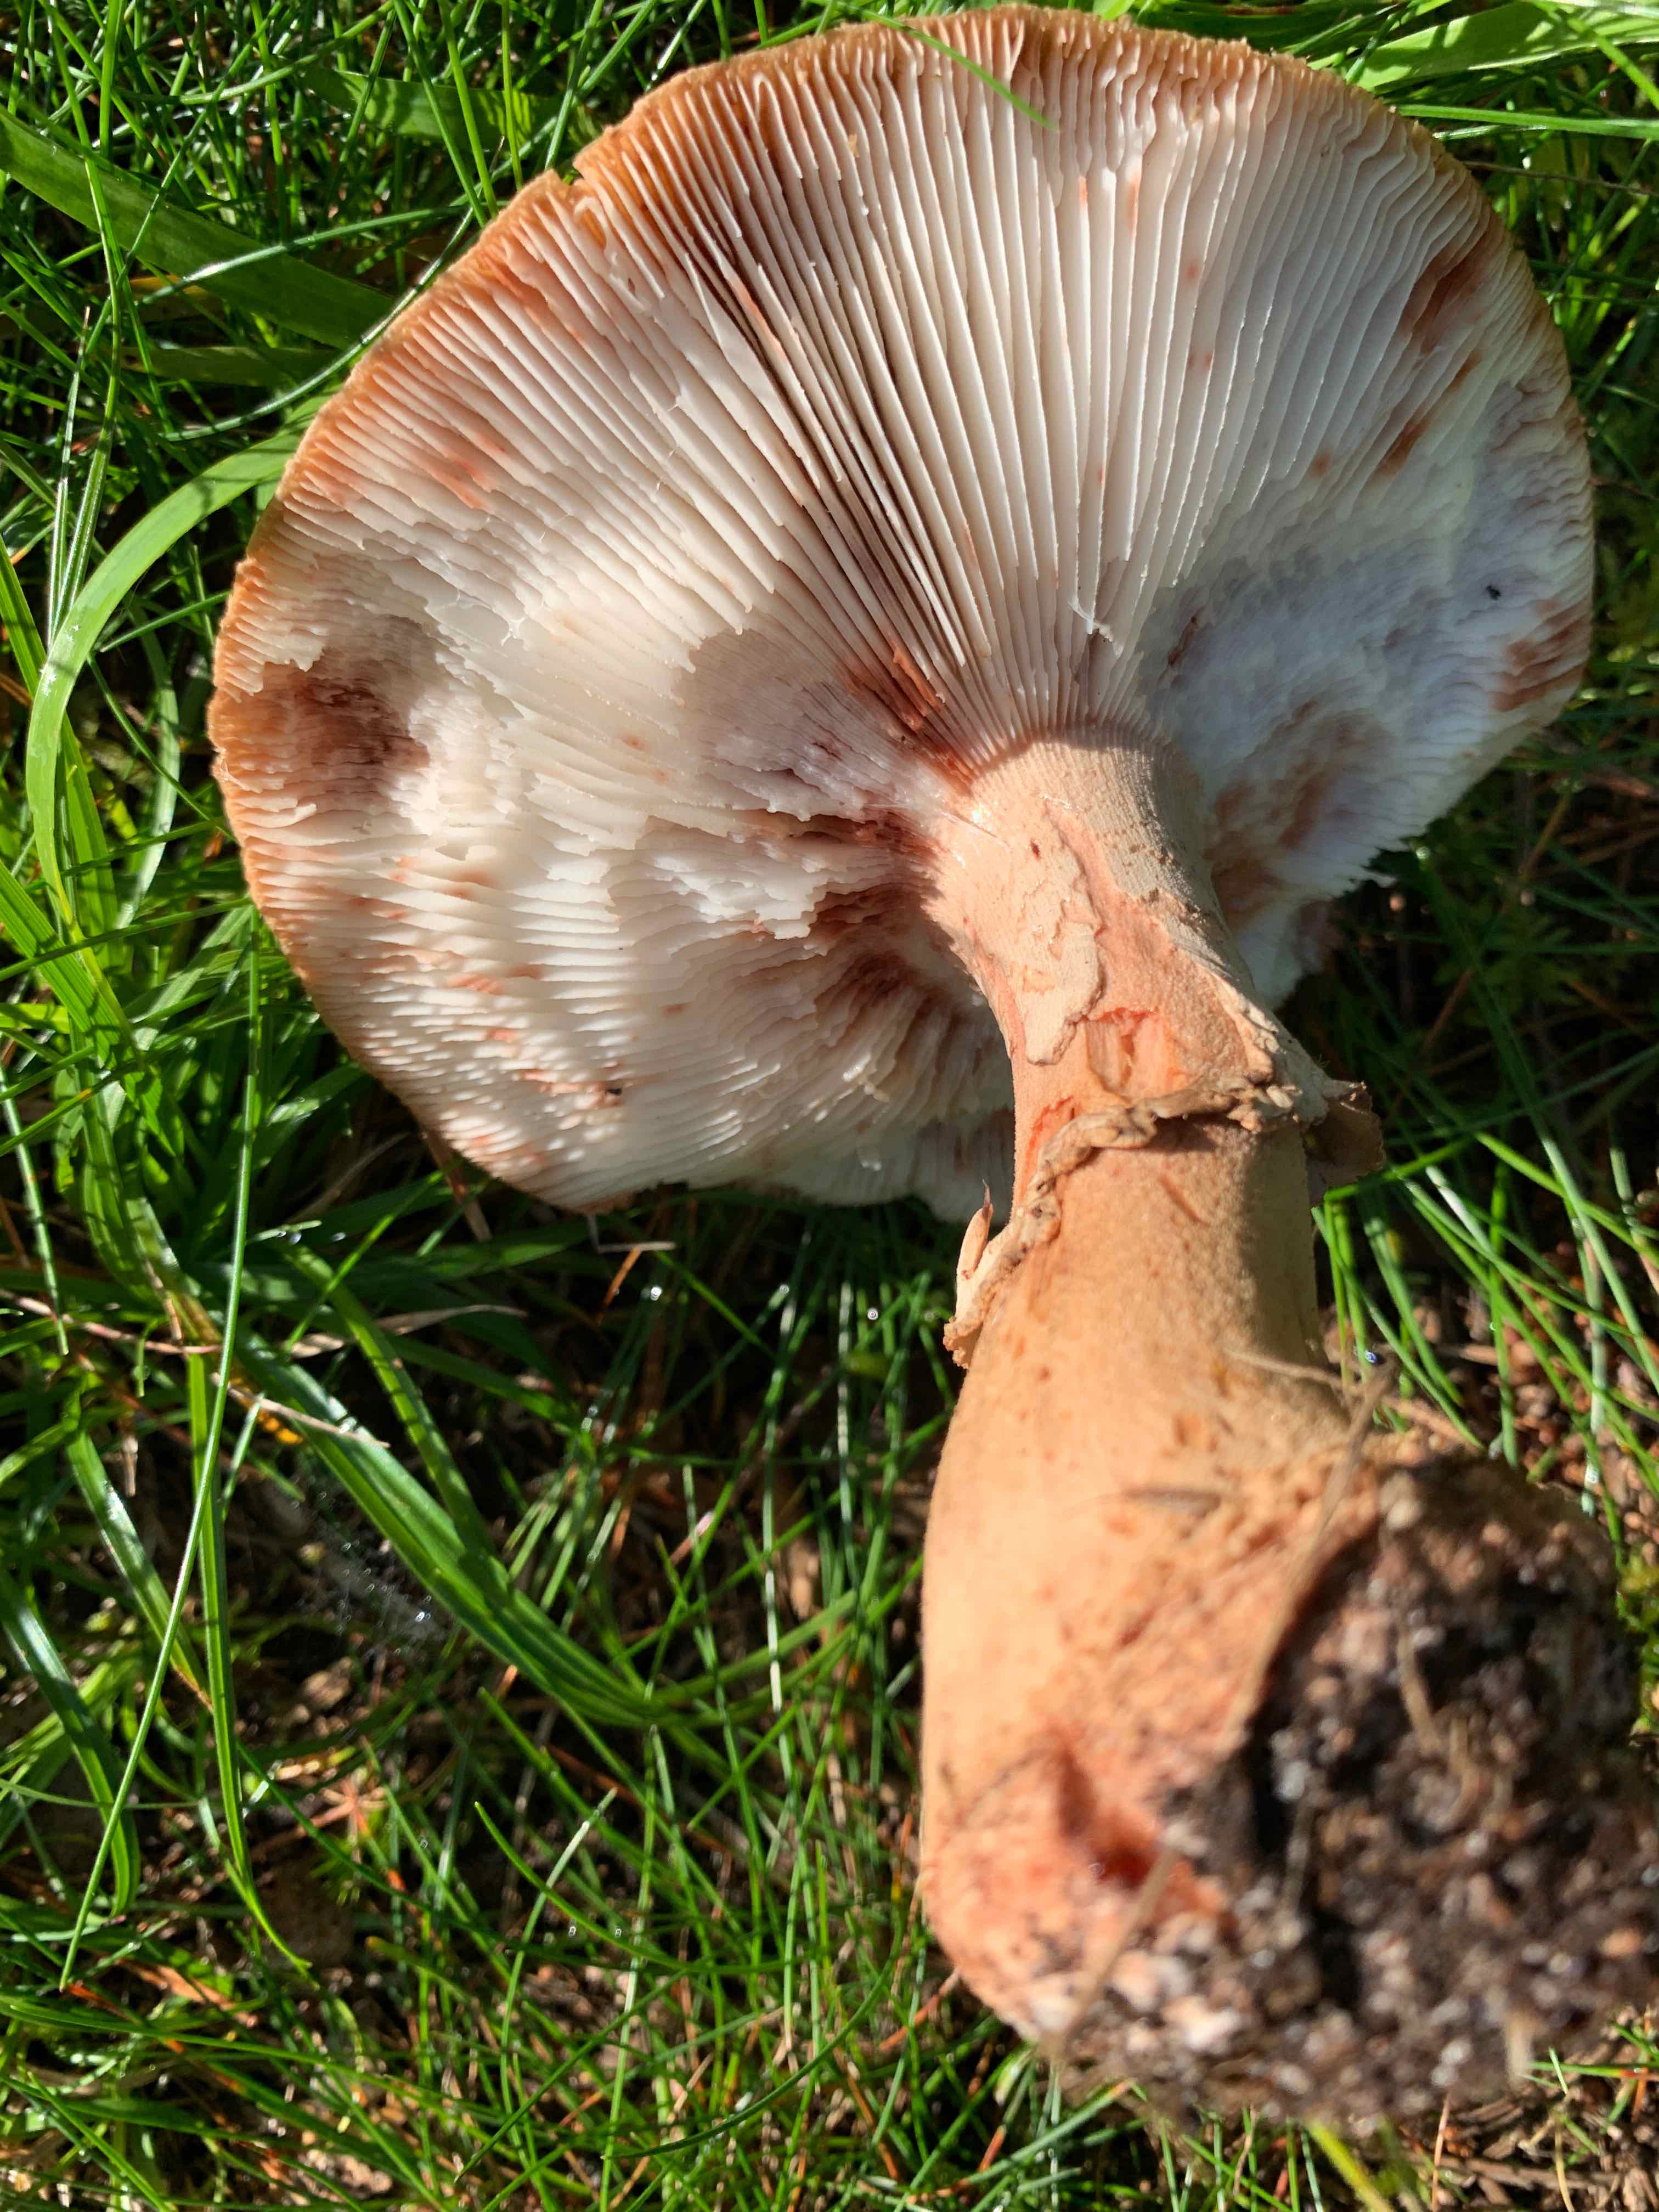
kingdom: Fungi
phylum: Basidiomycota
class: Agaricomycetes
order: Agaricales
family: Amanitaceae
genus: Amanita
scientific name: Amanita rubescens
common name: rødmende fluesvamp
